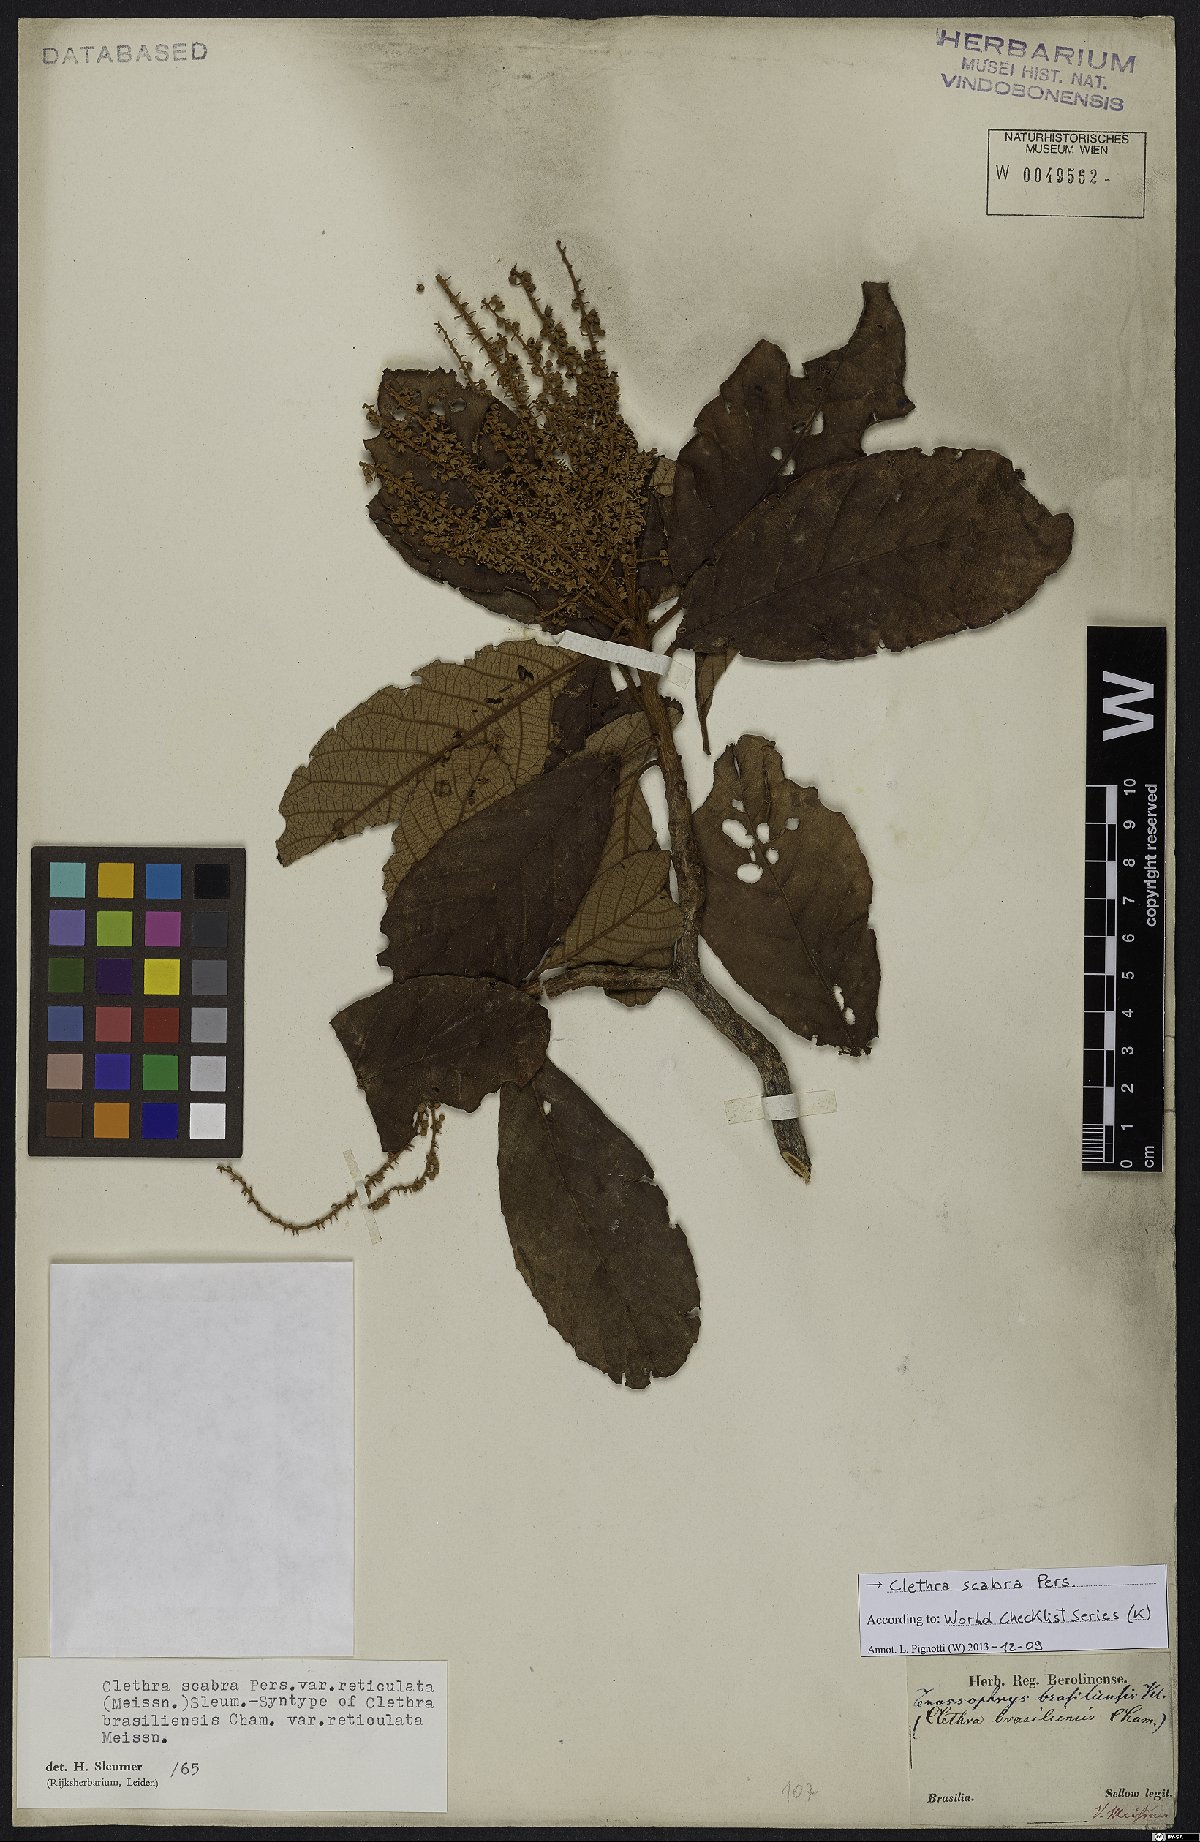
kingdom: Plantae
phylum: Tracheophyta
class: Magnoliopsida
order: Ericales
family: Clethraceae
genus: Clethra
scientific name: Clethra scabra
